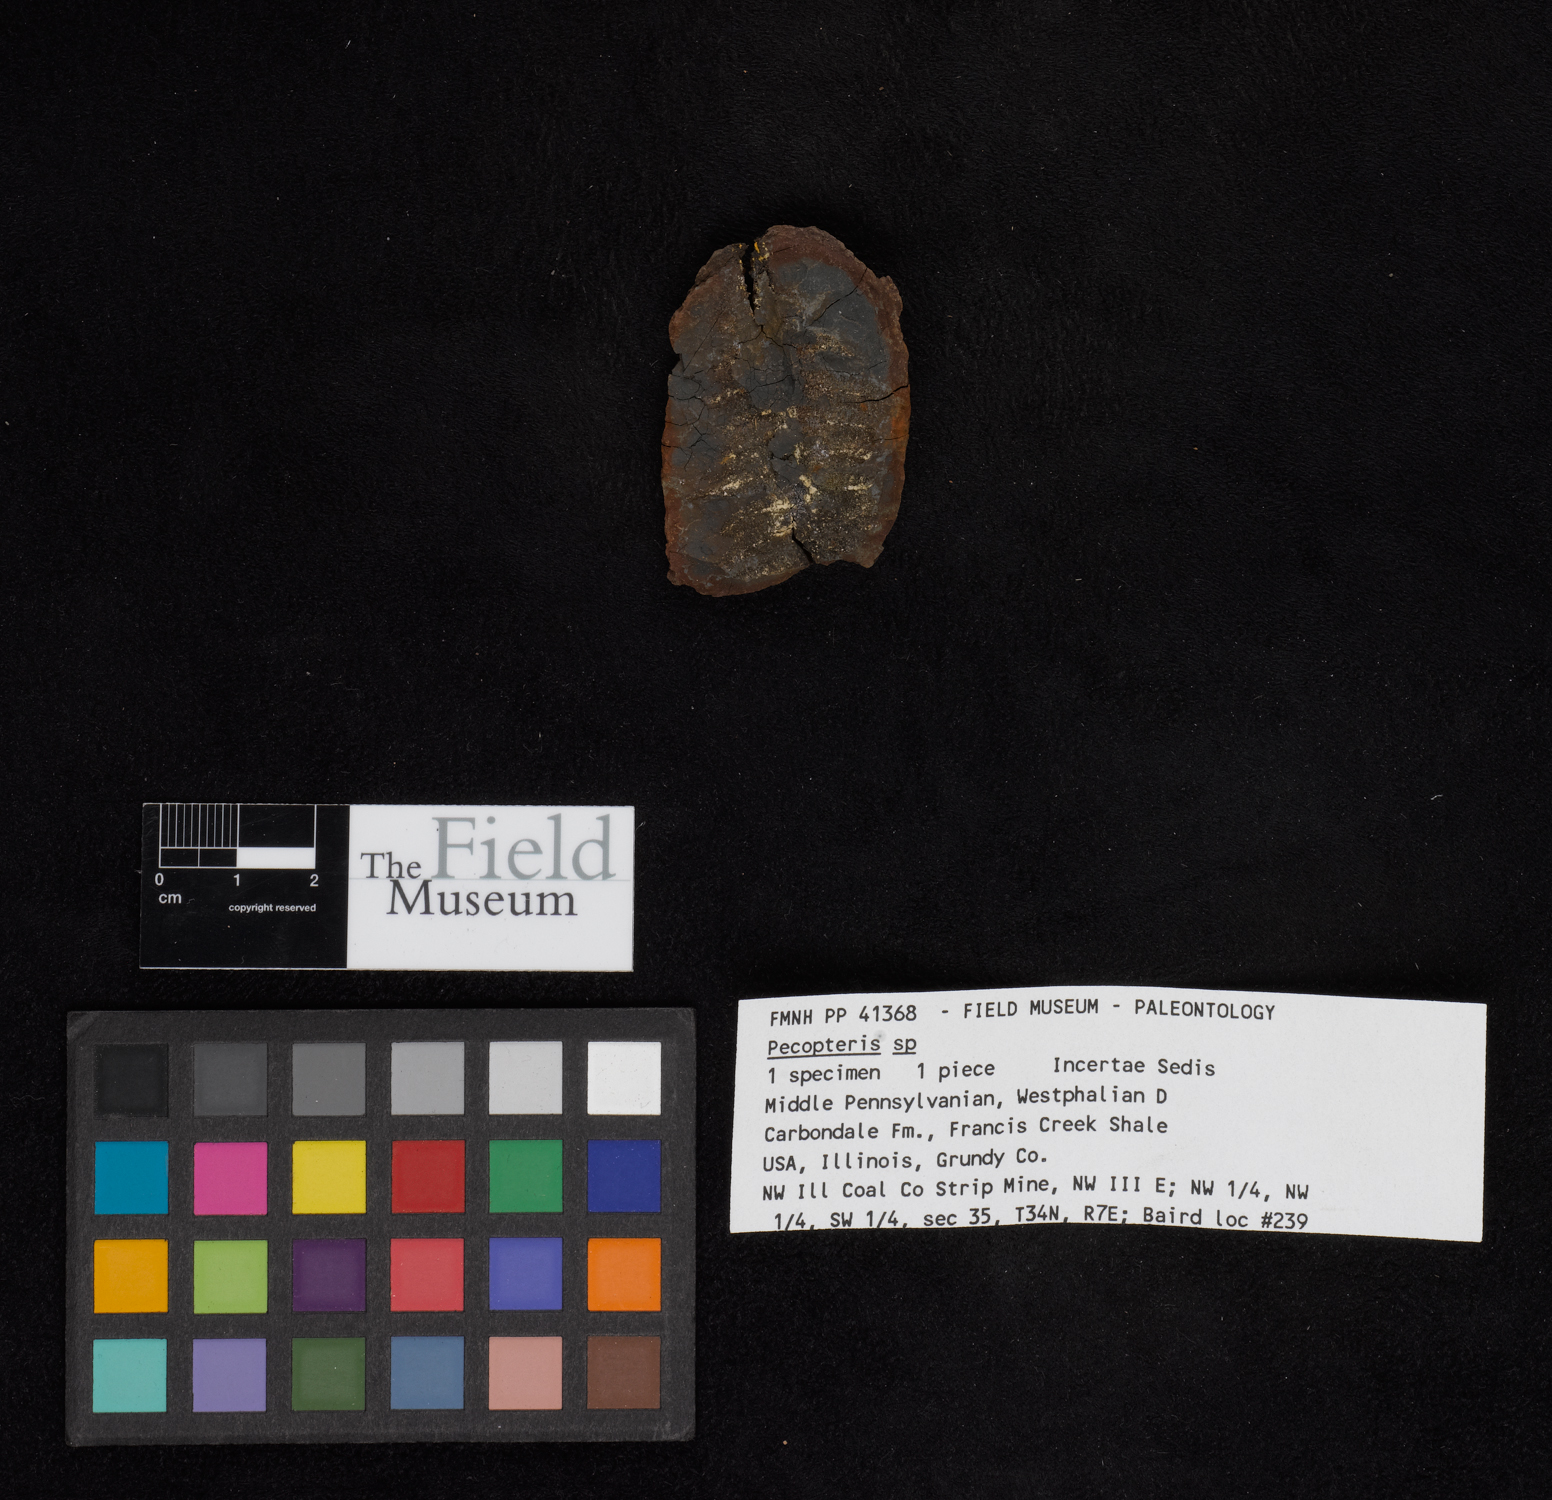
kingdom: Plantae
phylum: Tracheophyta
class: Polypodiopsida
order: Marattiales
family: Asterothecaceae
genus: Pecopteris
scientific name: Pecopteris
